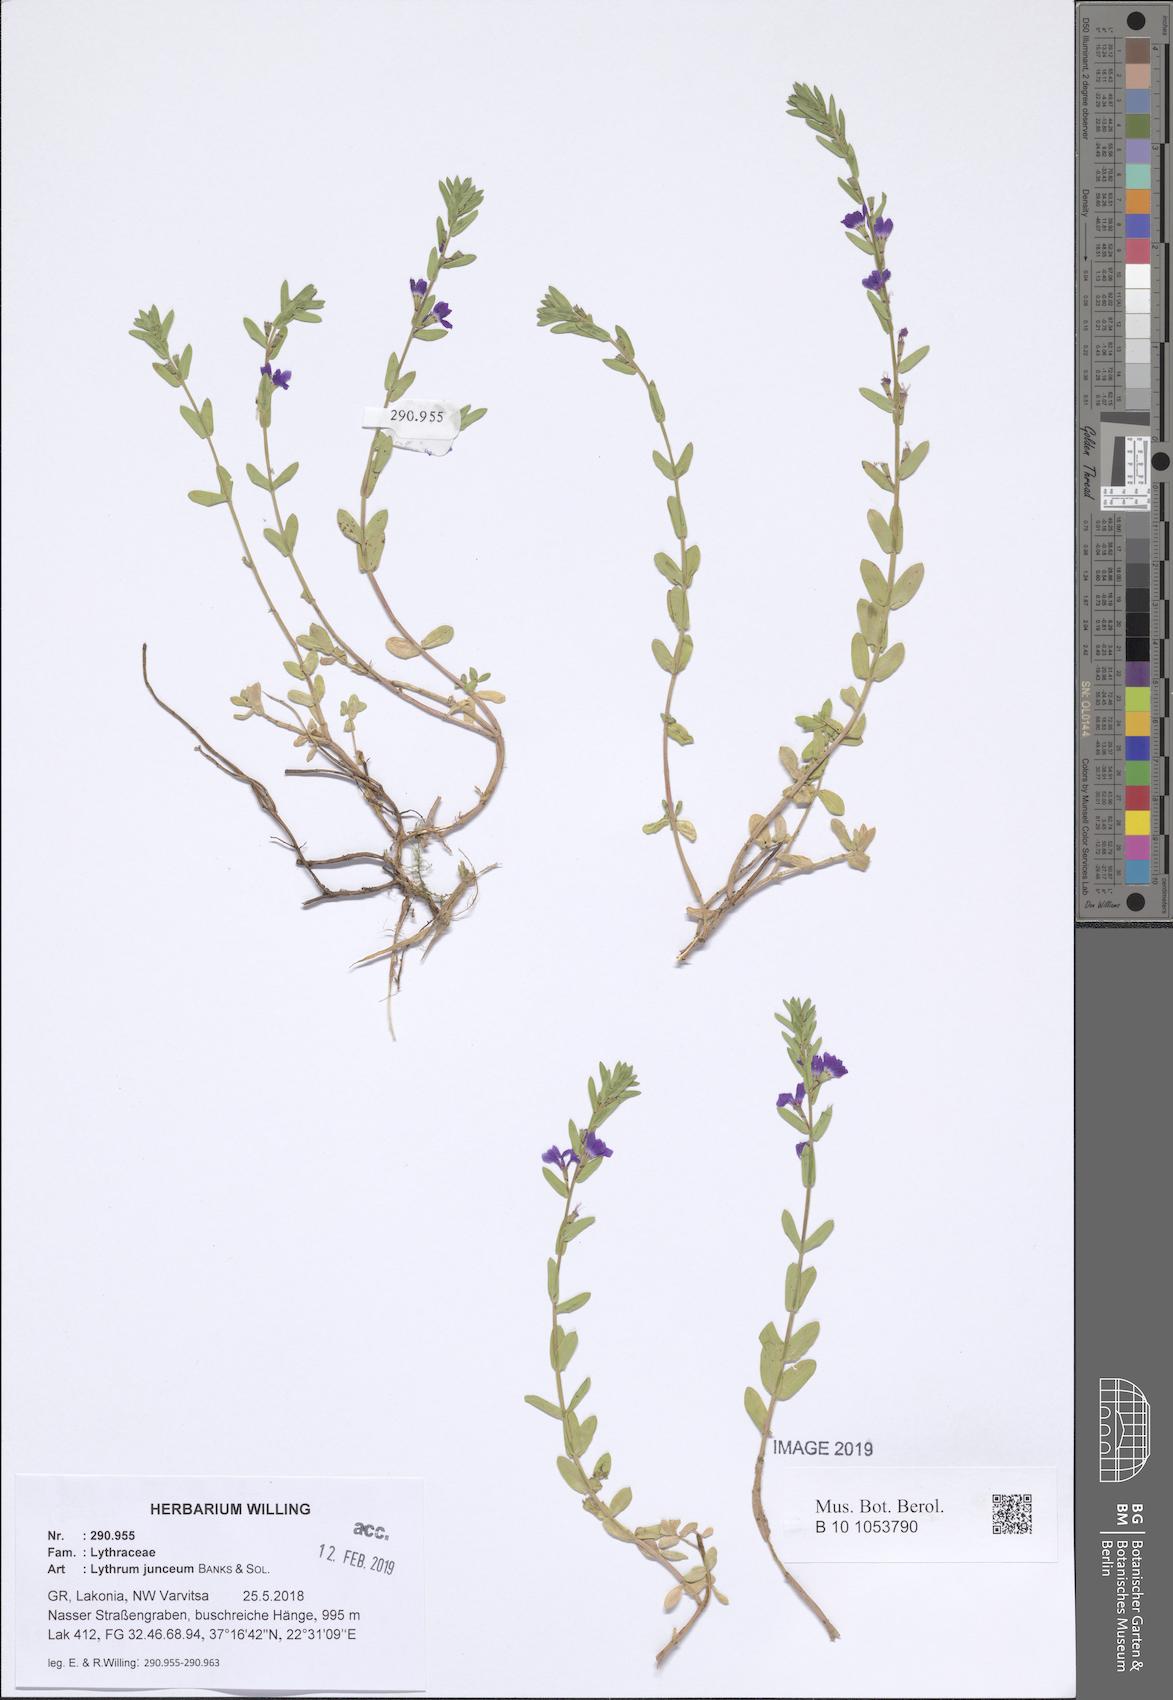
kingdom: Plantae
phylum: Tracheophyta
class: Magnoliopsida
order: Myrtales
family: Lythraceae
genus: Lythrum
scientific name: Lythrum junceum
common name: False grass-poly
